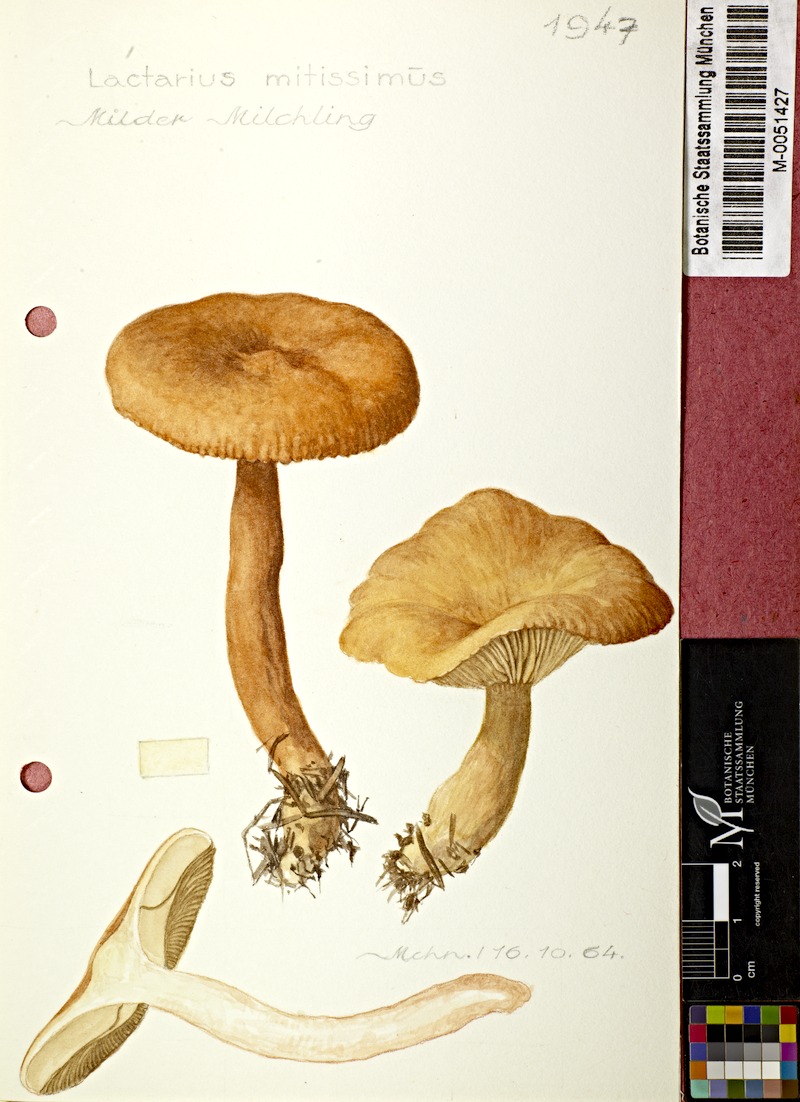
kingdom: Fungi
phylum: Basidiomycota
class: Agaricomycetes
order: Russulales
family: Russulaceae
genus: Lactarius
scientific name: Lactarius aurantiacus
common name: Orange milkcap
